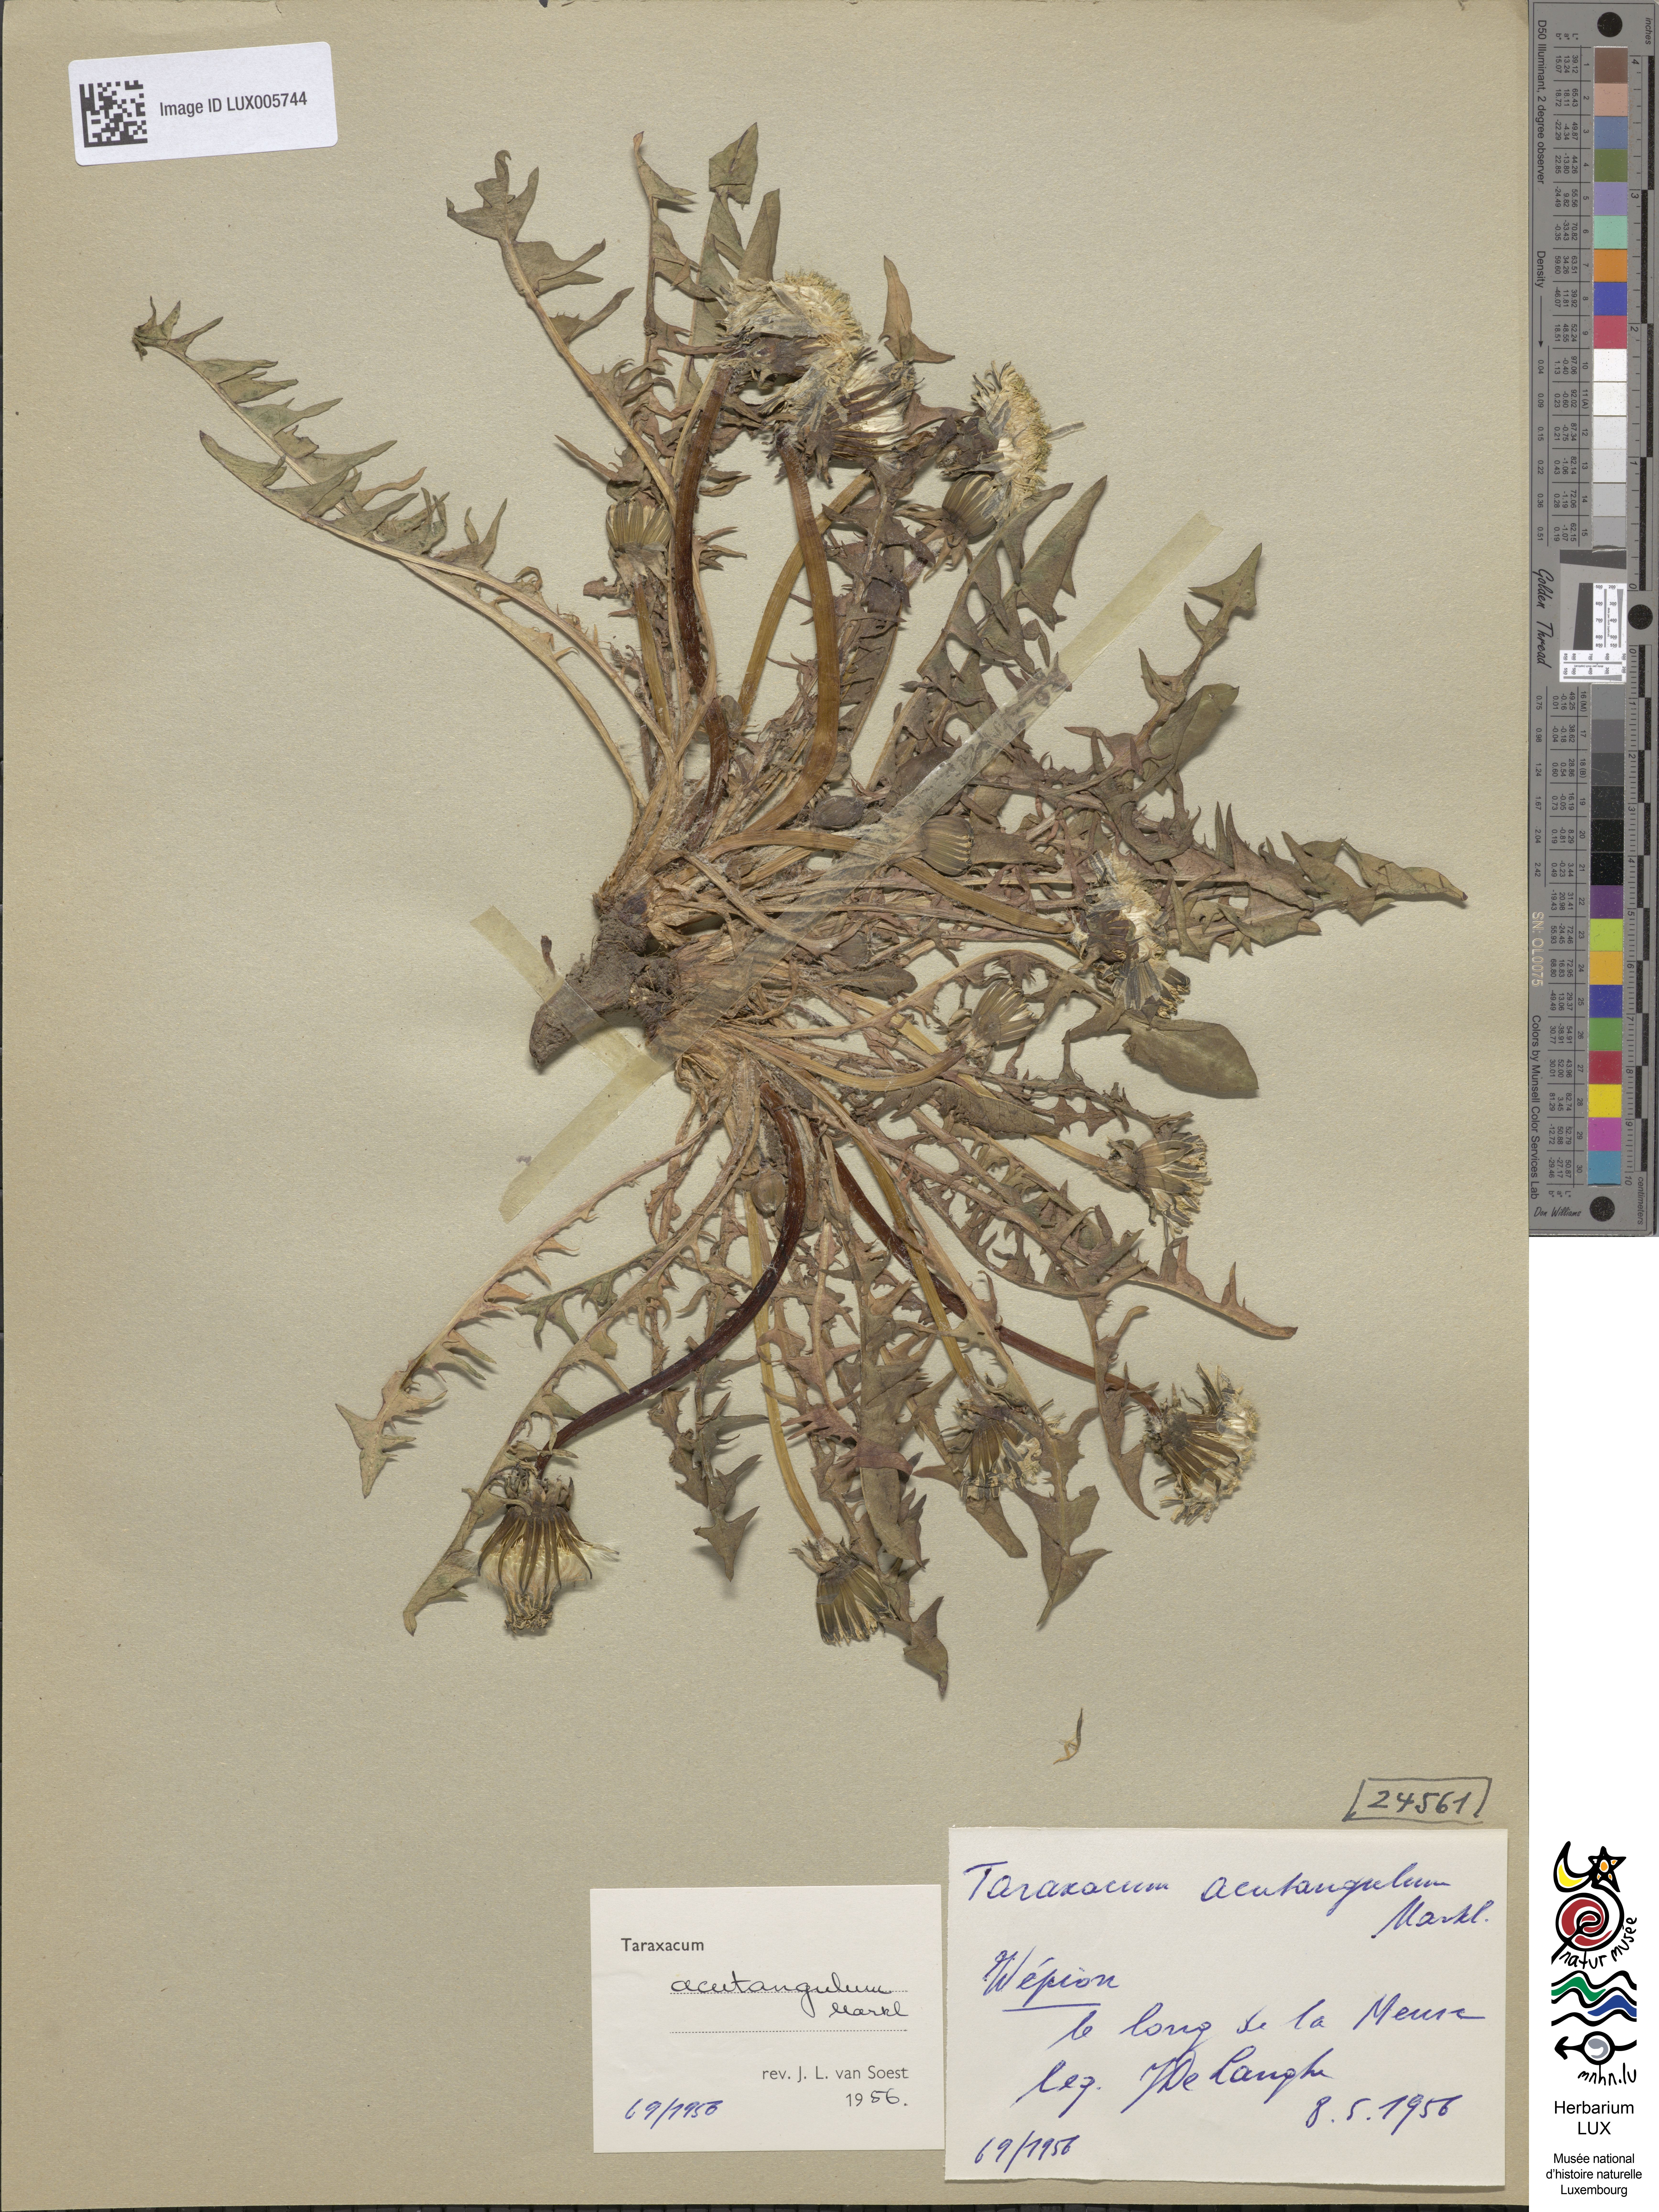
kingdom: Plantae
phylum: Tracheophyta
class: Magnoliopsida
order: Asterales
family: Asteraceae
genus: Taraxacum
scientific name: Taraxacum acutangulum
